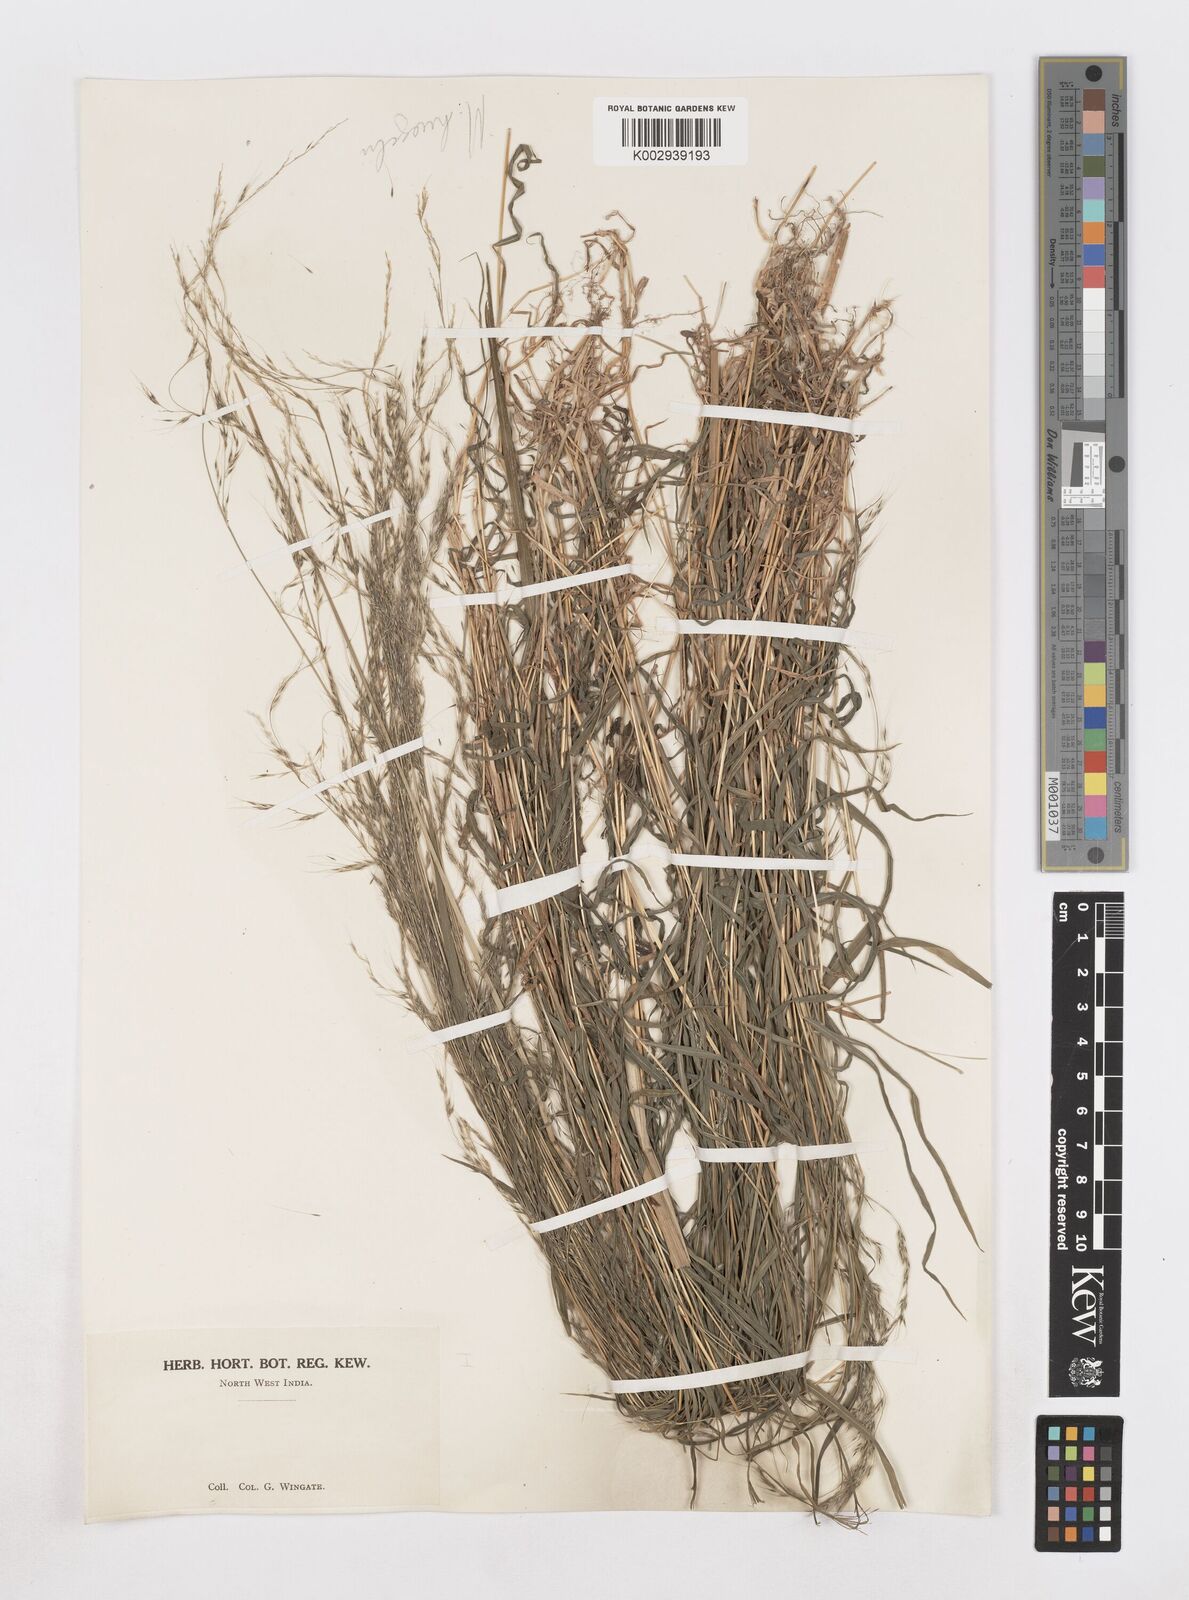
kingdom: Plantae
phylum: Tracheophyta
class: Liliopsida
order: Poales
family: Poaceae
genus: Muhlenbergia
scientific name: Muhlenbergia huegelii
